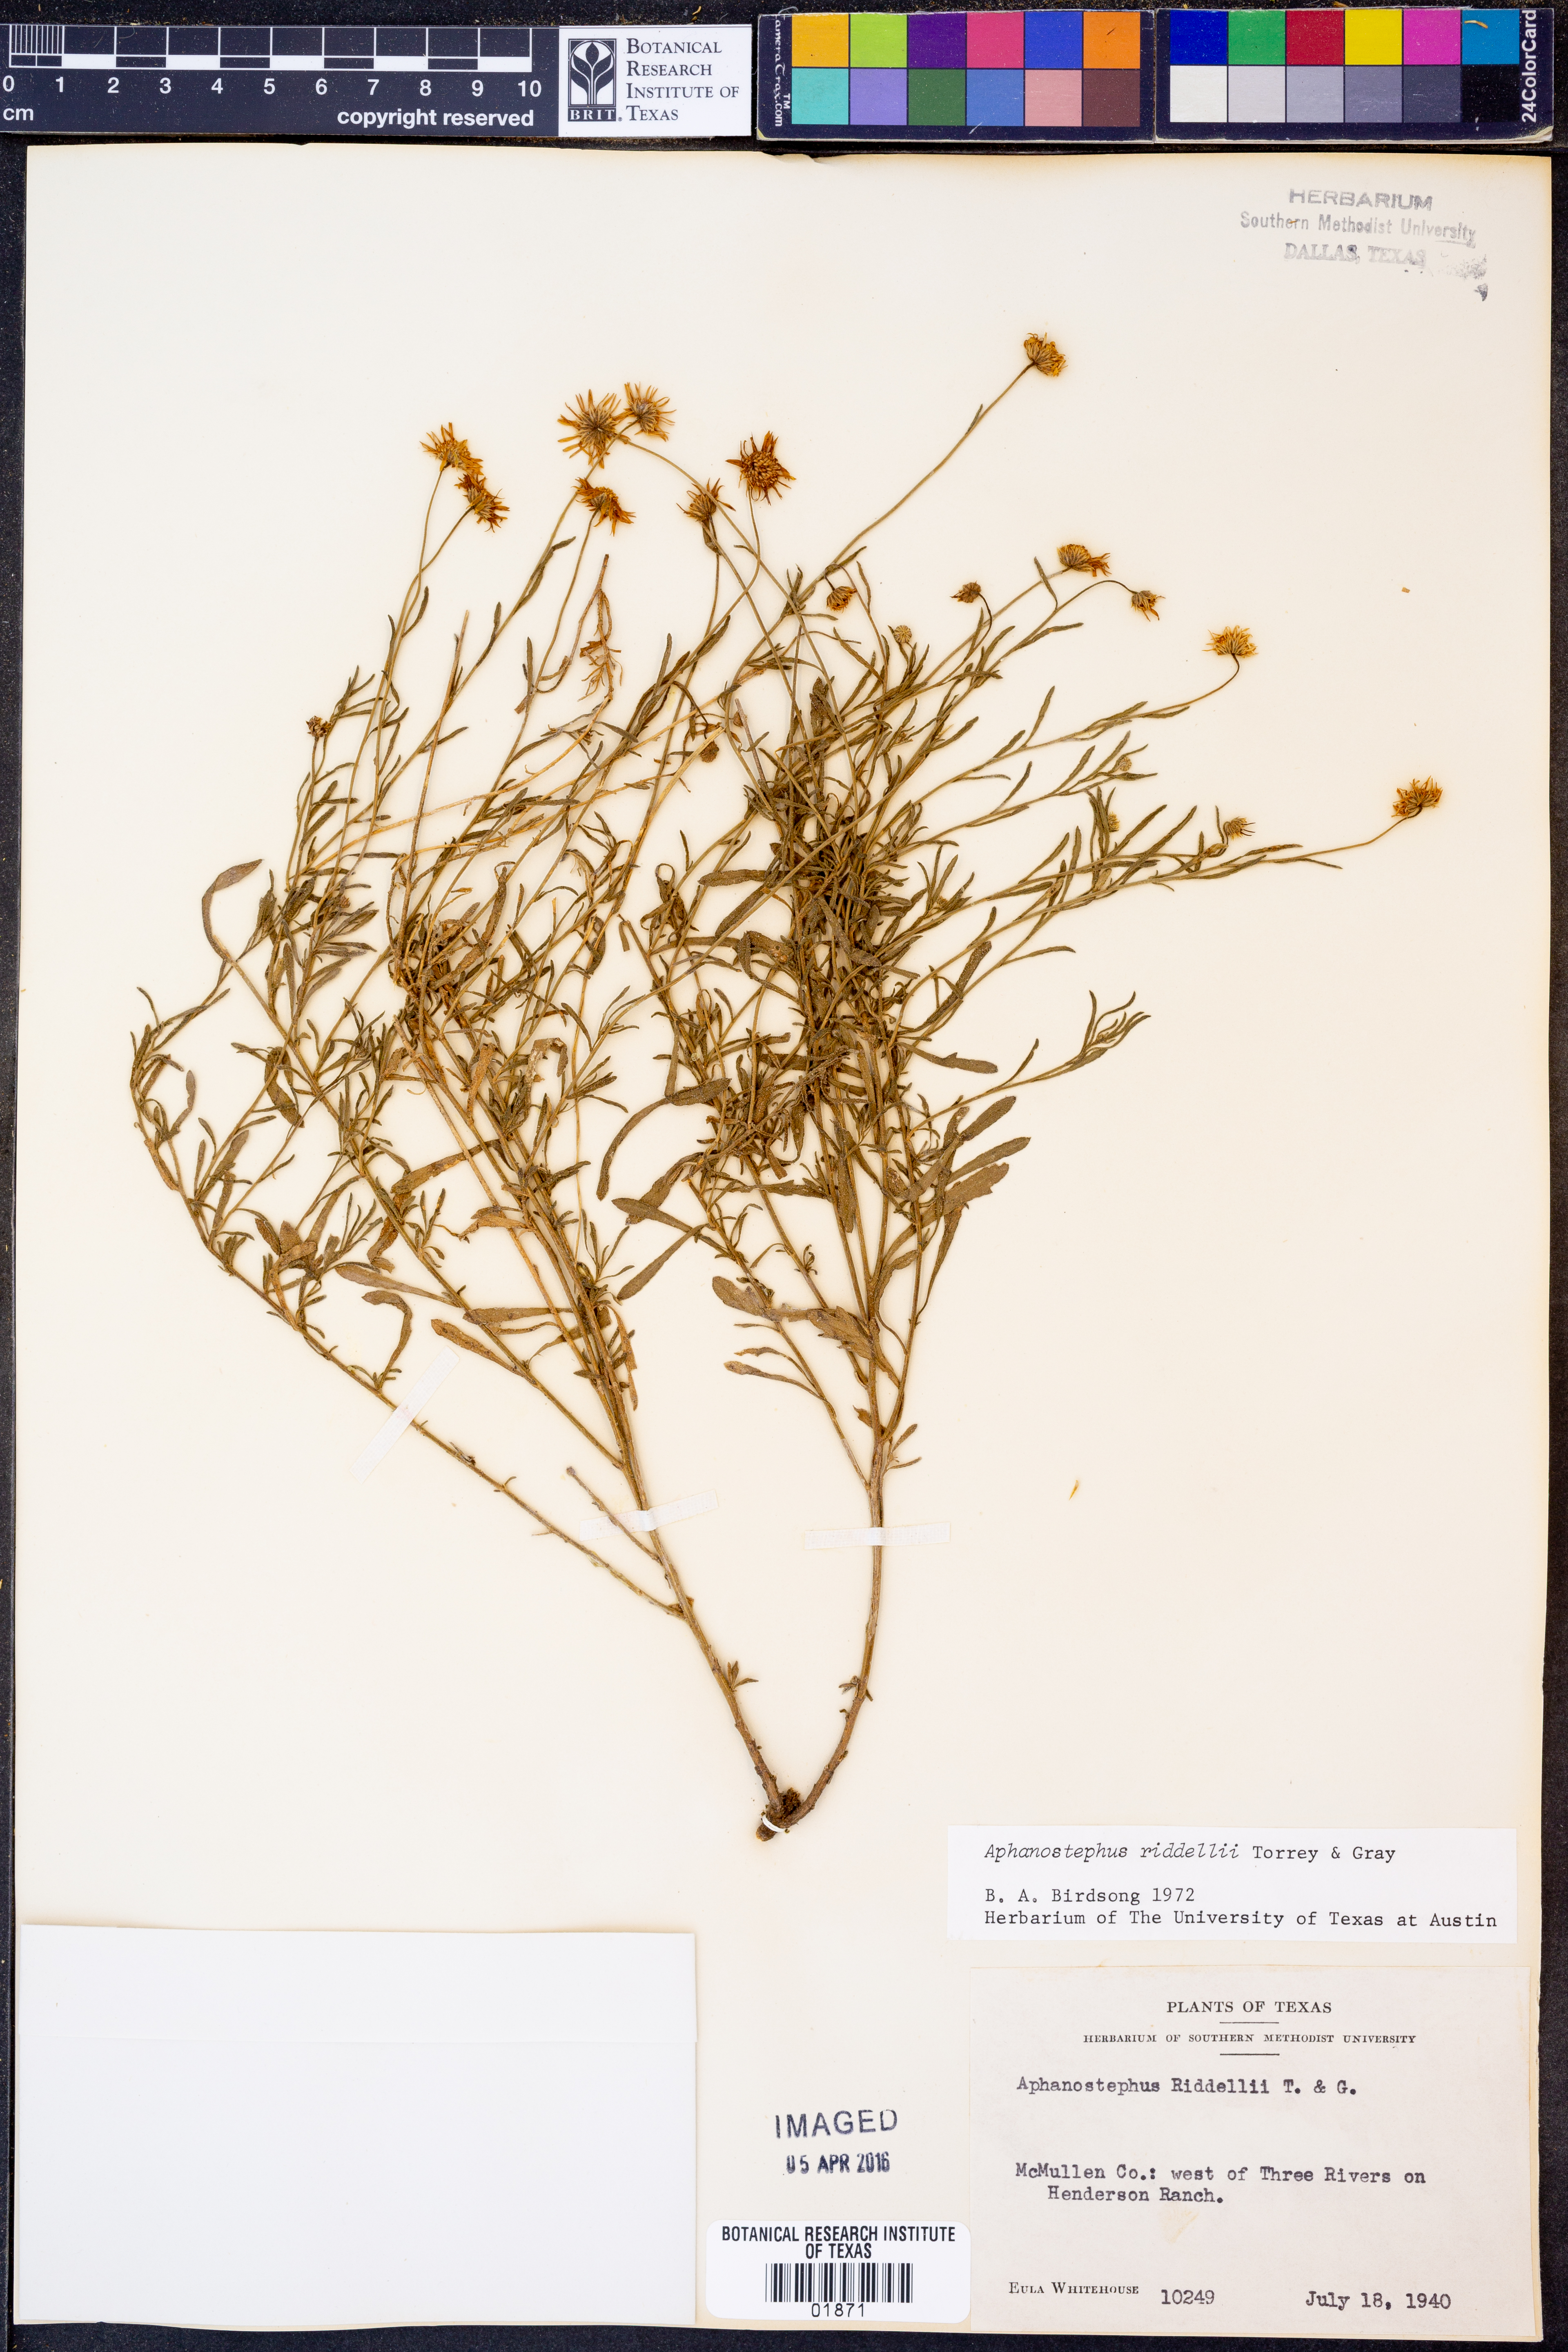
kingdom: Plantae
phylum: Tracheophyta
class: Magnoliopsida
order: Asterales
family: Asteraceae
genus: Aphanostephus
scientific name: Aphanostephus riddellii
